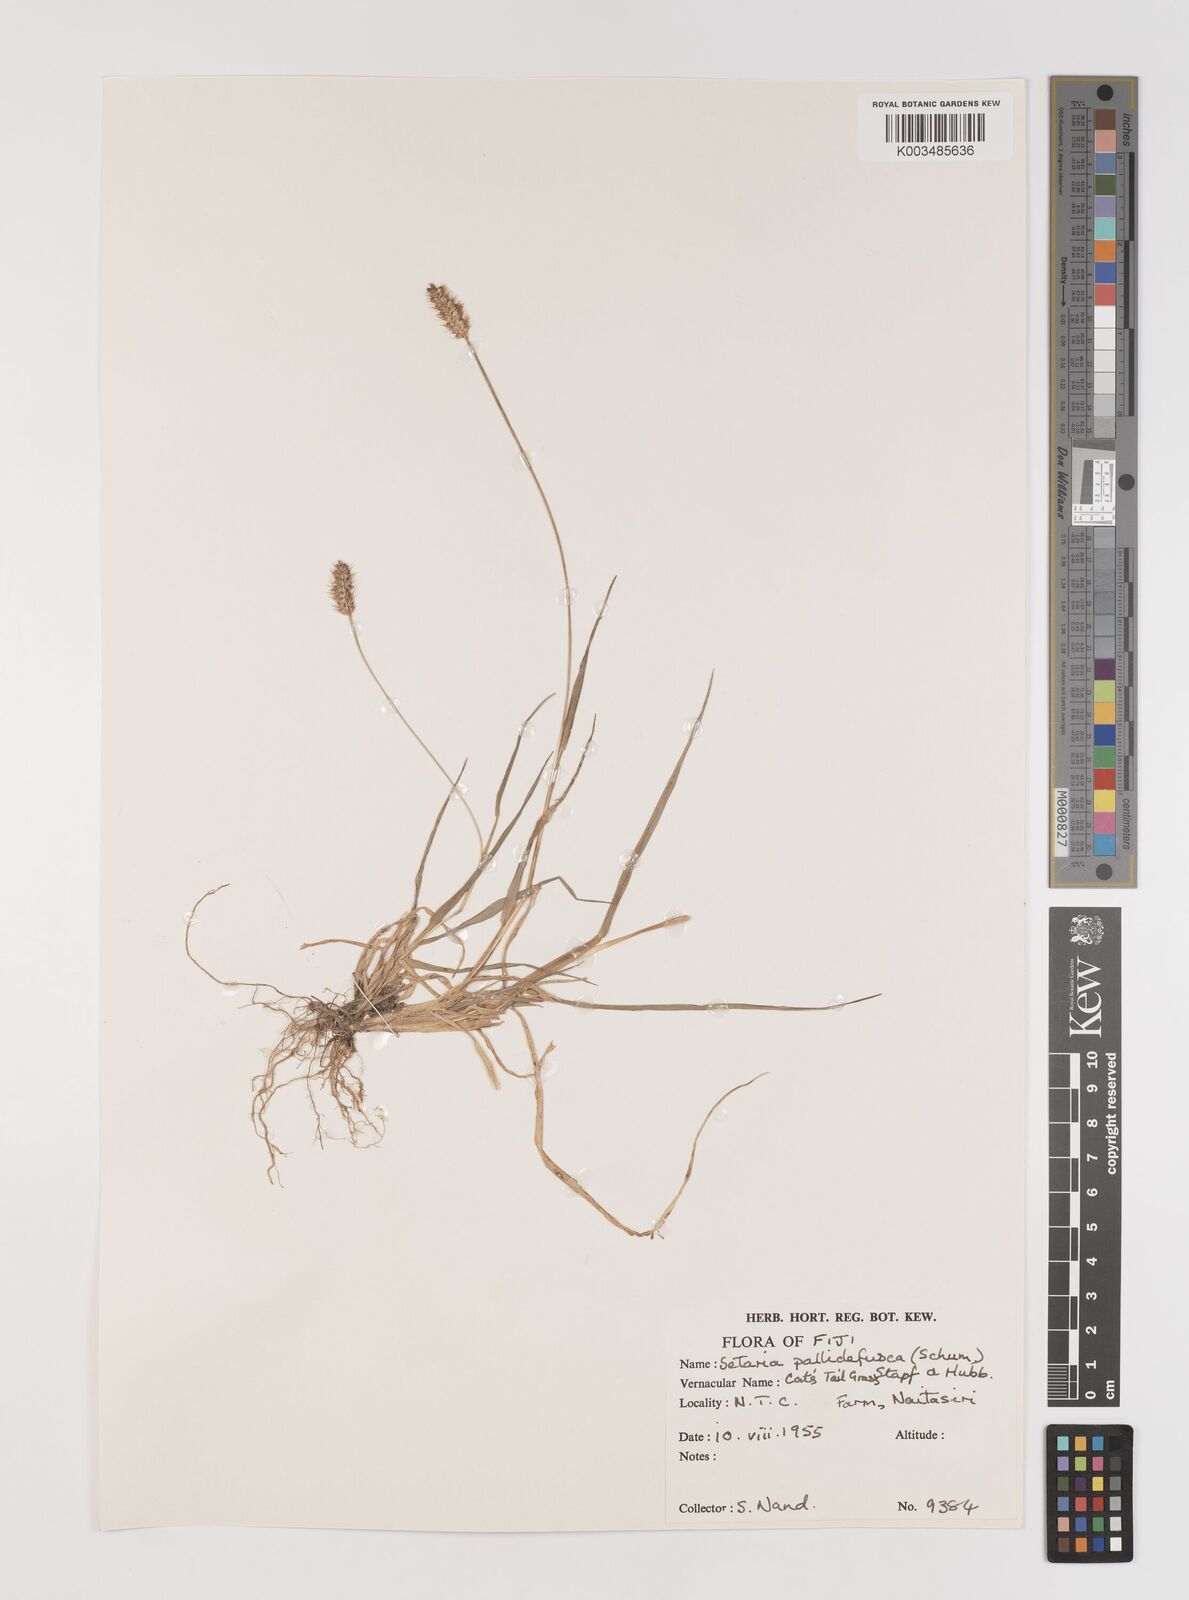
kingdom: Plantae
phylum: Tracheophyta
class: Liliopsida
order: Poales
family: Poaceae
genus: Setaria
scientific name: Setaria pumila
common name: Yellow bristle-grass
